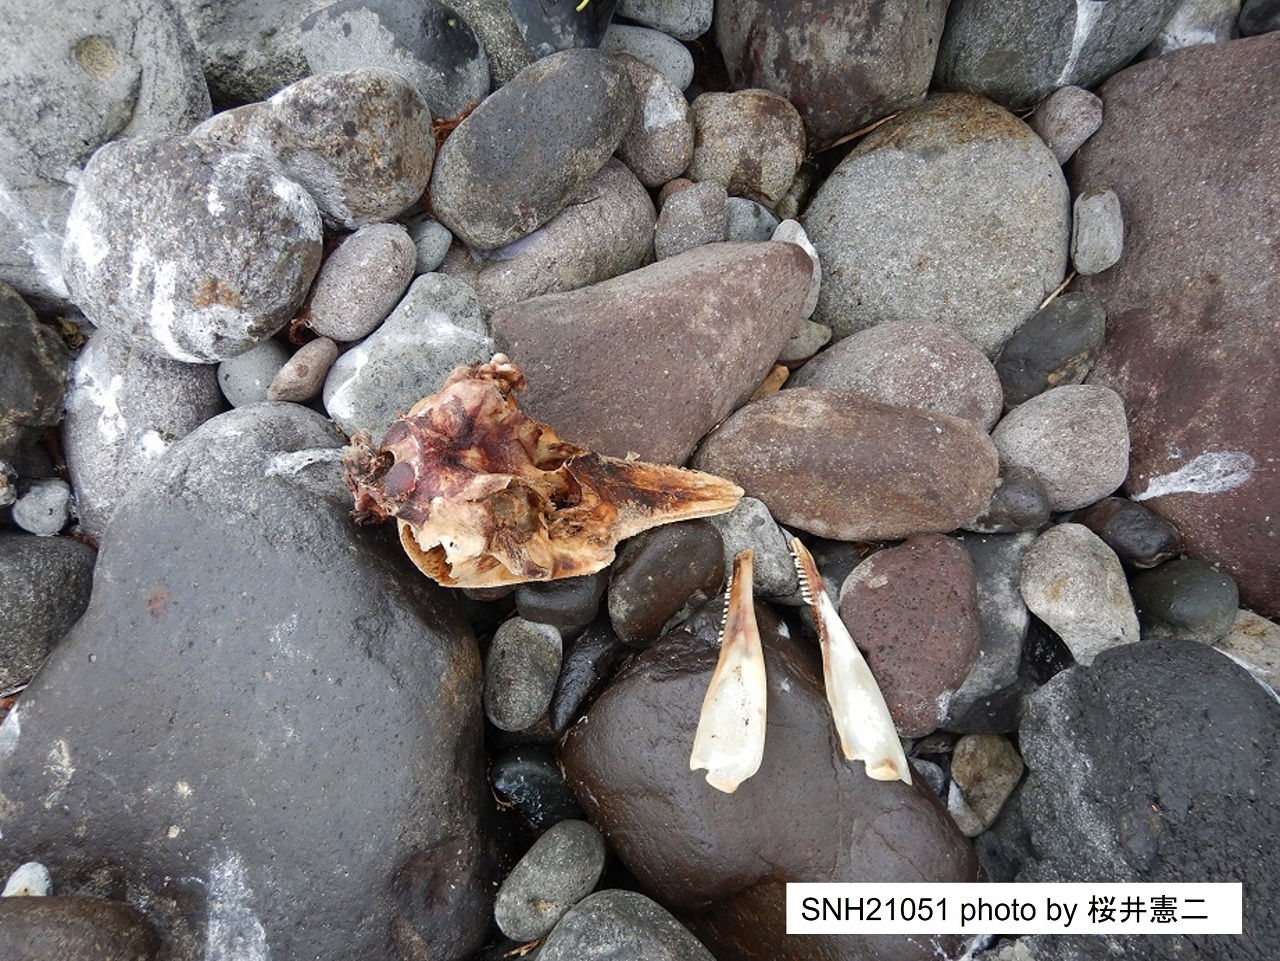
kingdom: Animalia
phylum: Chordata
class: Mammalia
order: Cetacea
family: Phocoenidae
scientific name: Phocoenidae
